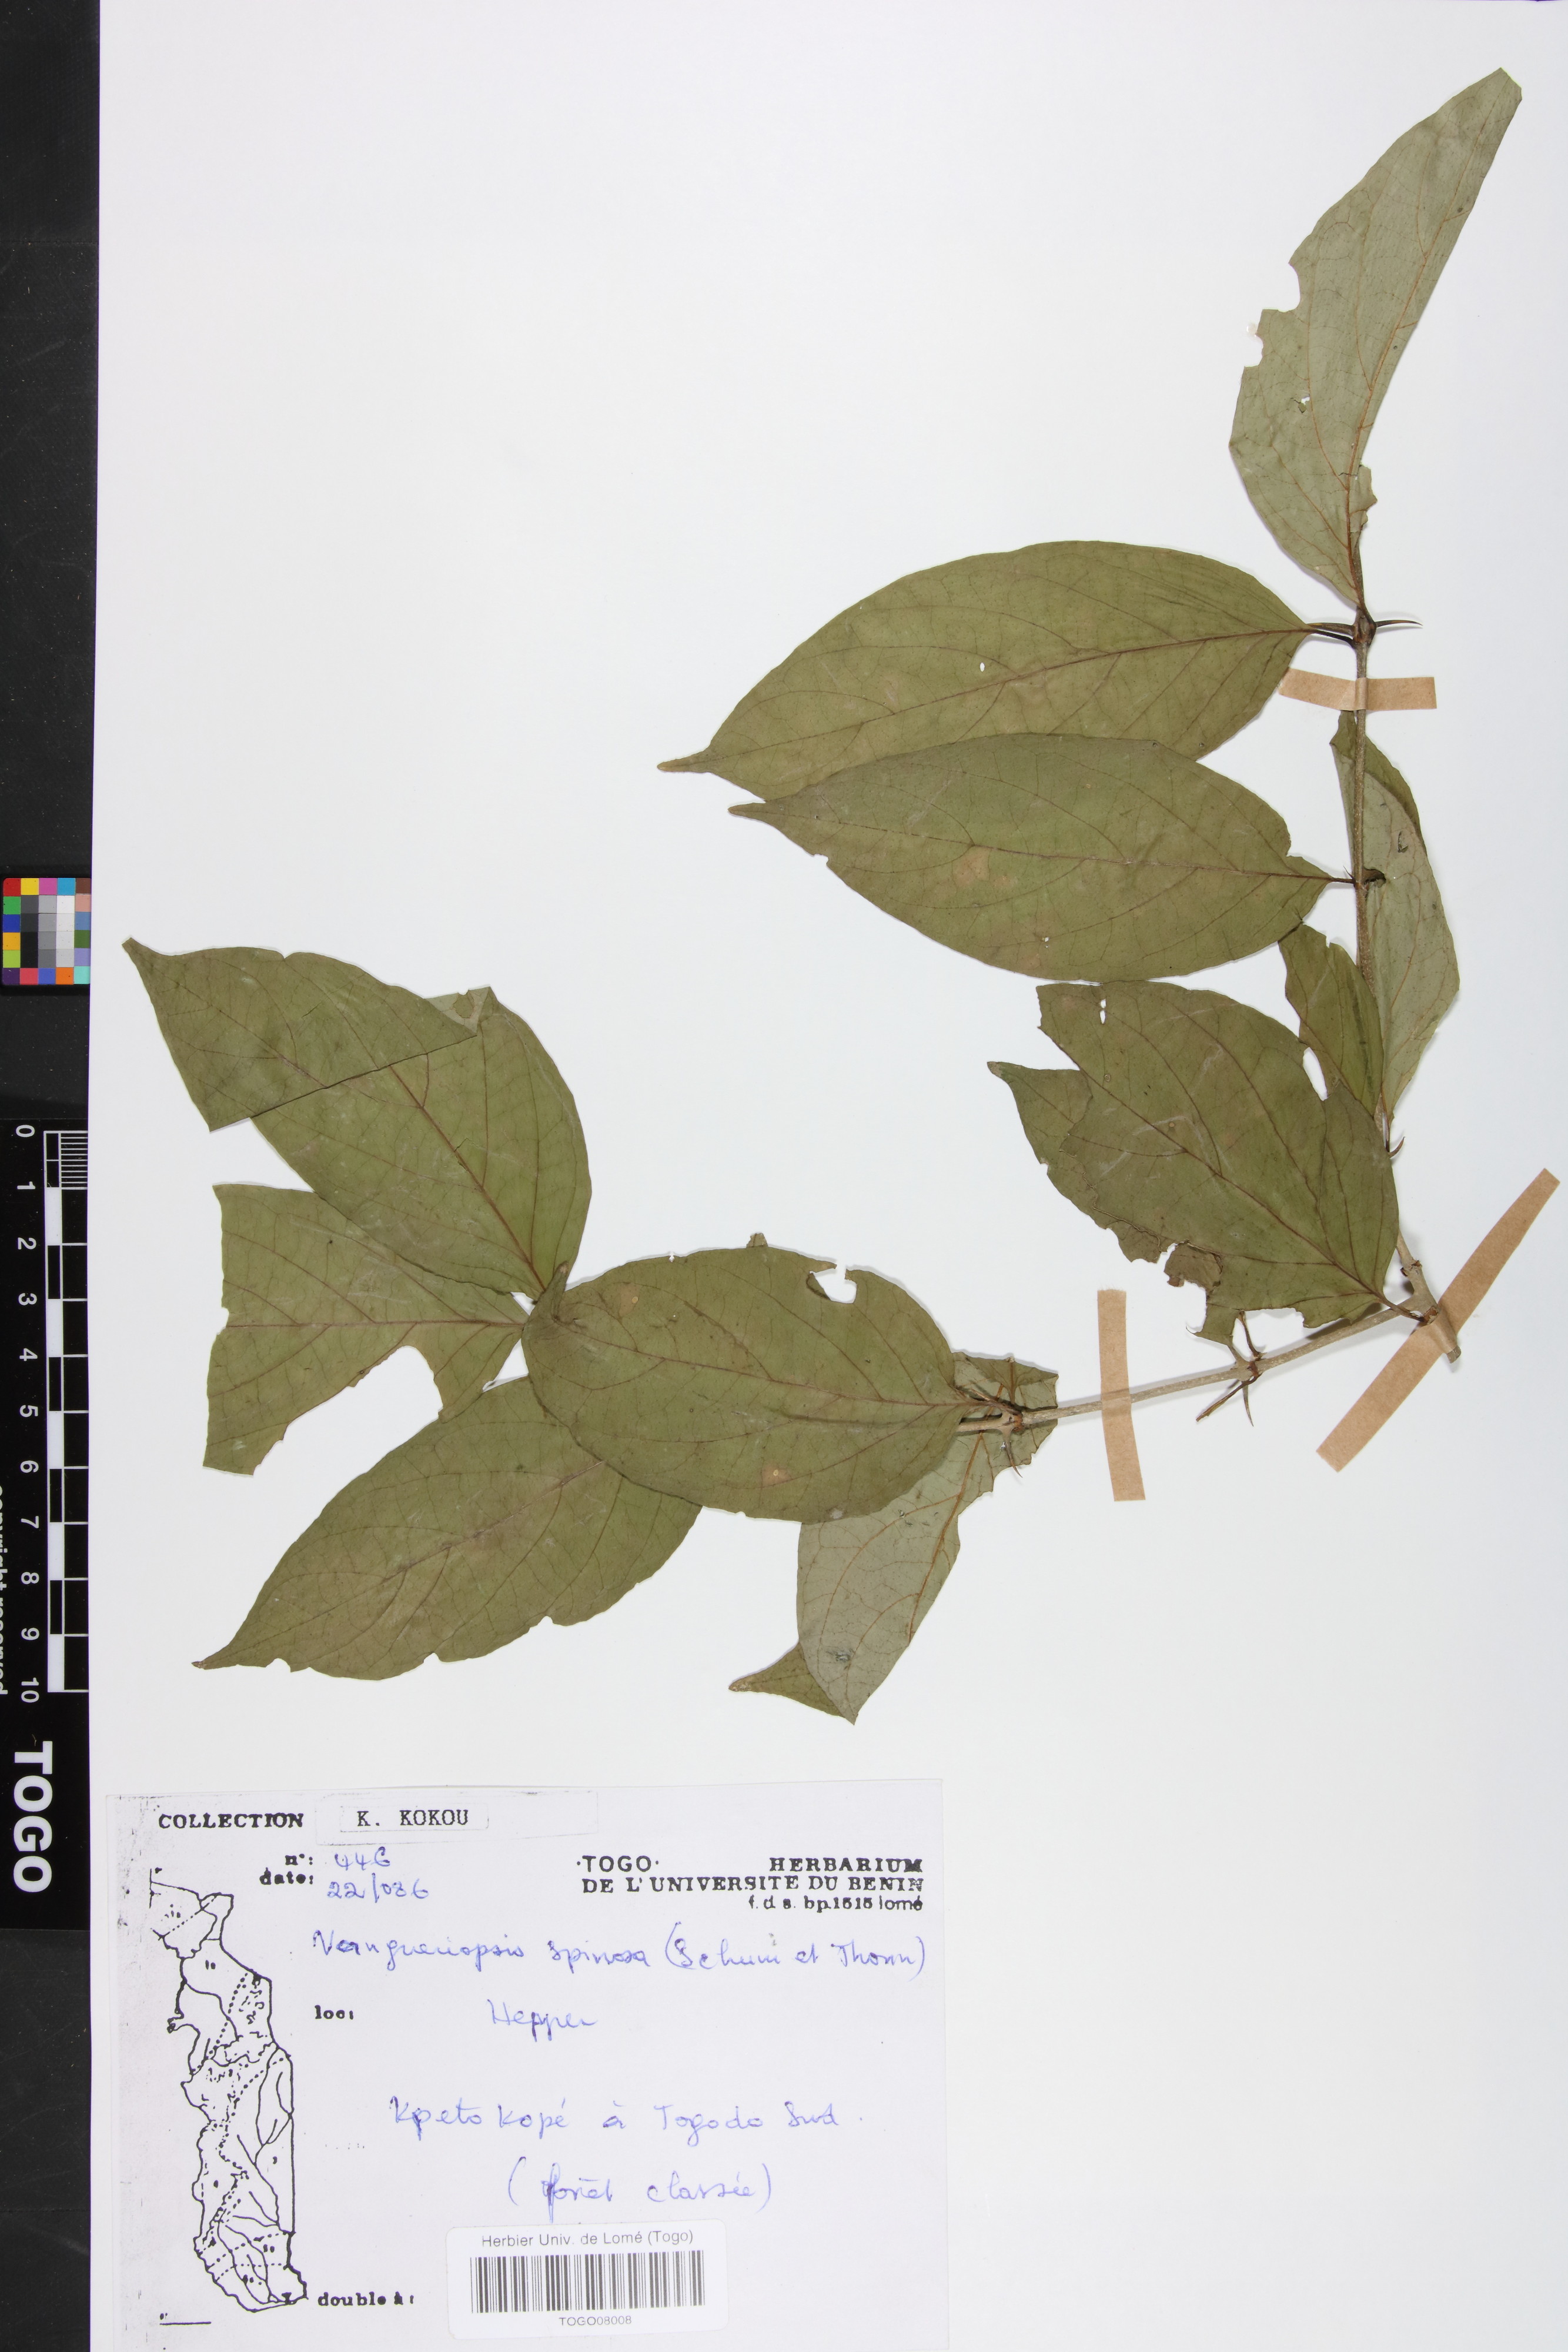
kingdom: Plantae
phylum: Tracheophyta
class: Magnoliopsida
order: Gentianales
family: Rubiaceae
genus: Vangueriella
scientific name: Vangueriella spinosa
